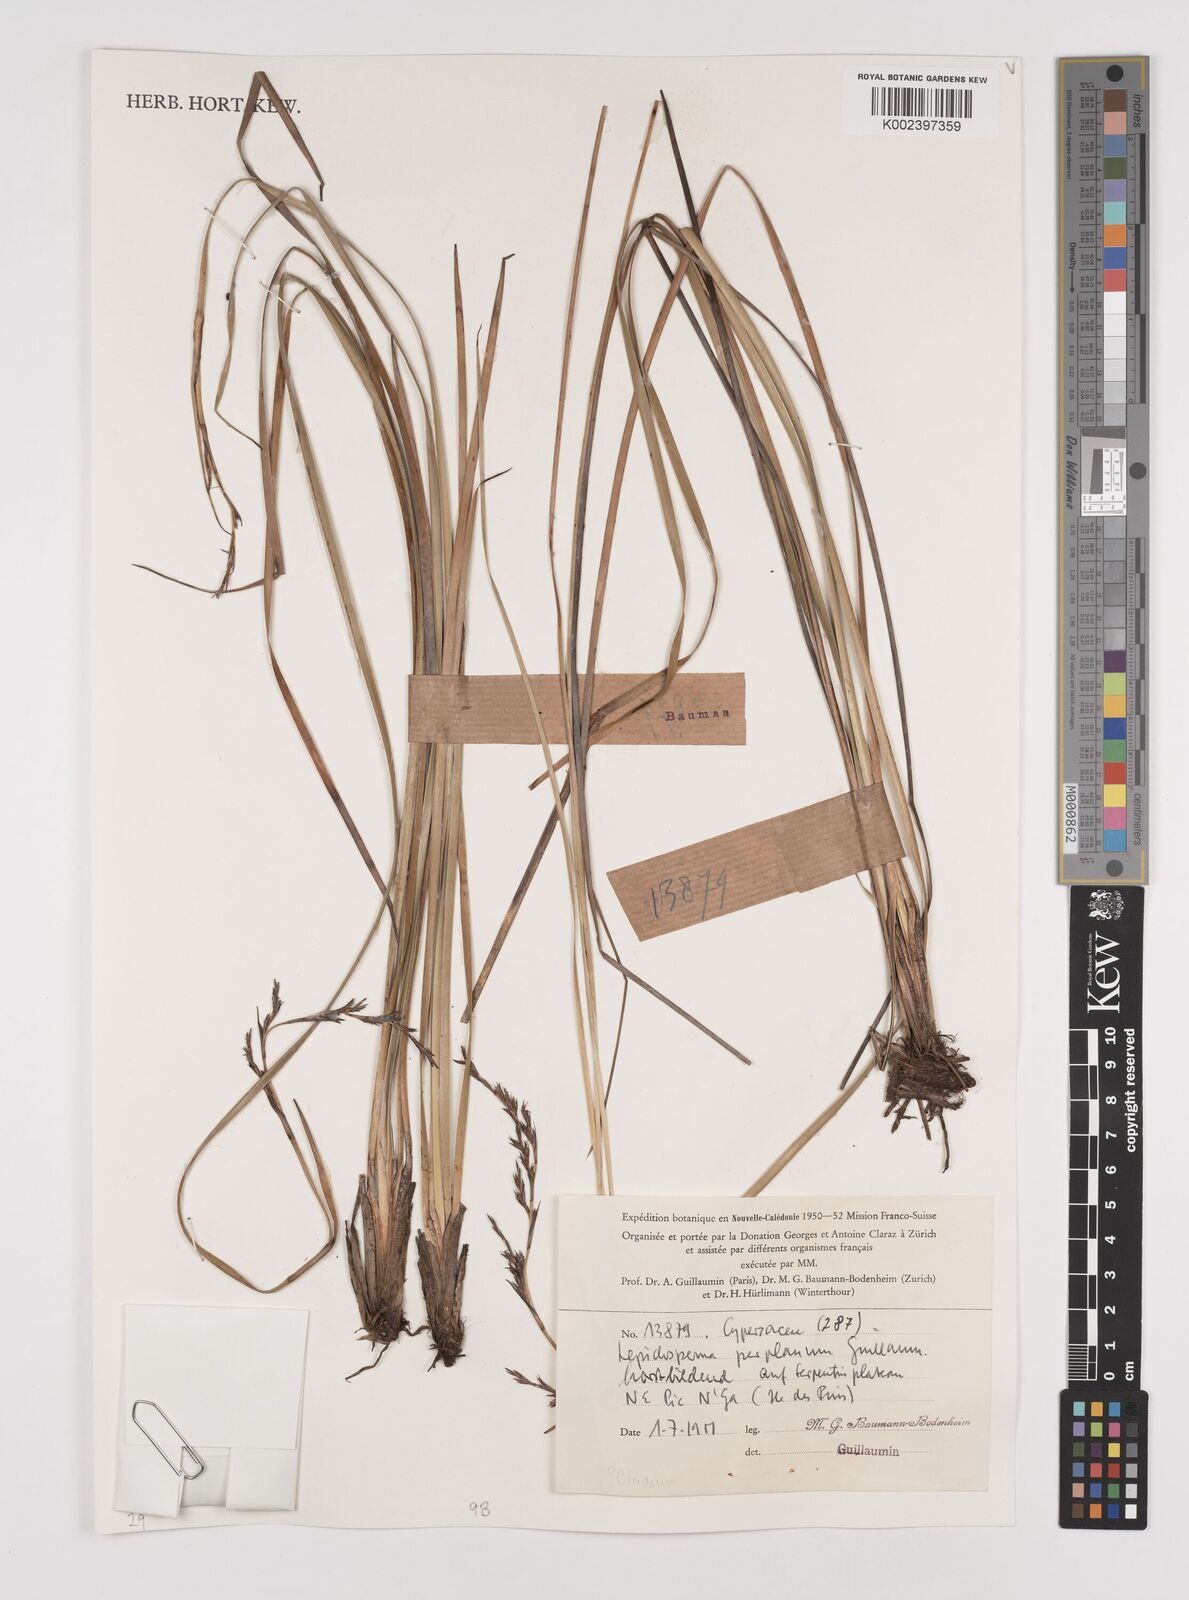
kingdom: Plantae
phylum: Tracheophyta
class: Liliopsida
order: Poales
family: Cyperaceae
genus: Lepidosperma
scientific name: Lepidosperma perplanum
